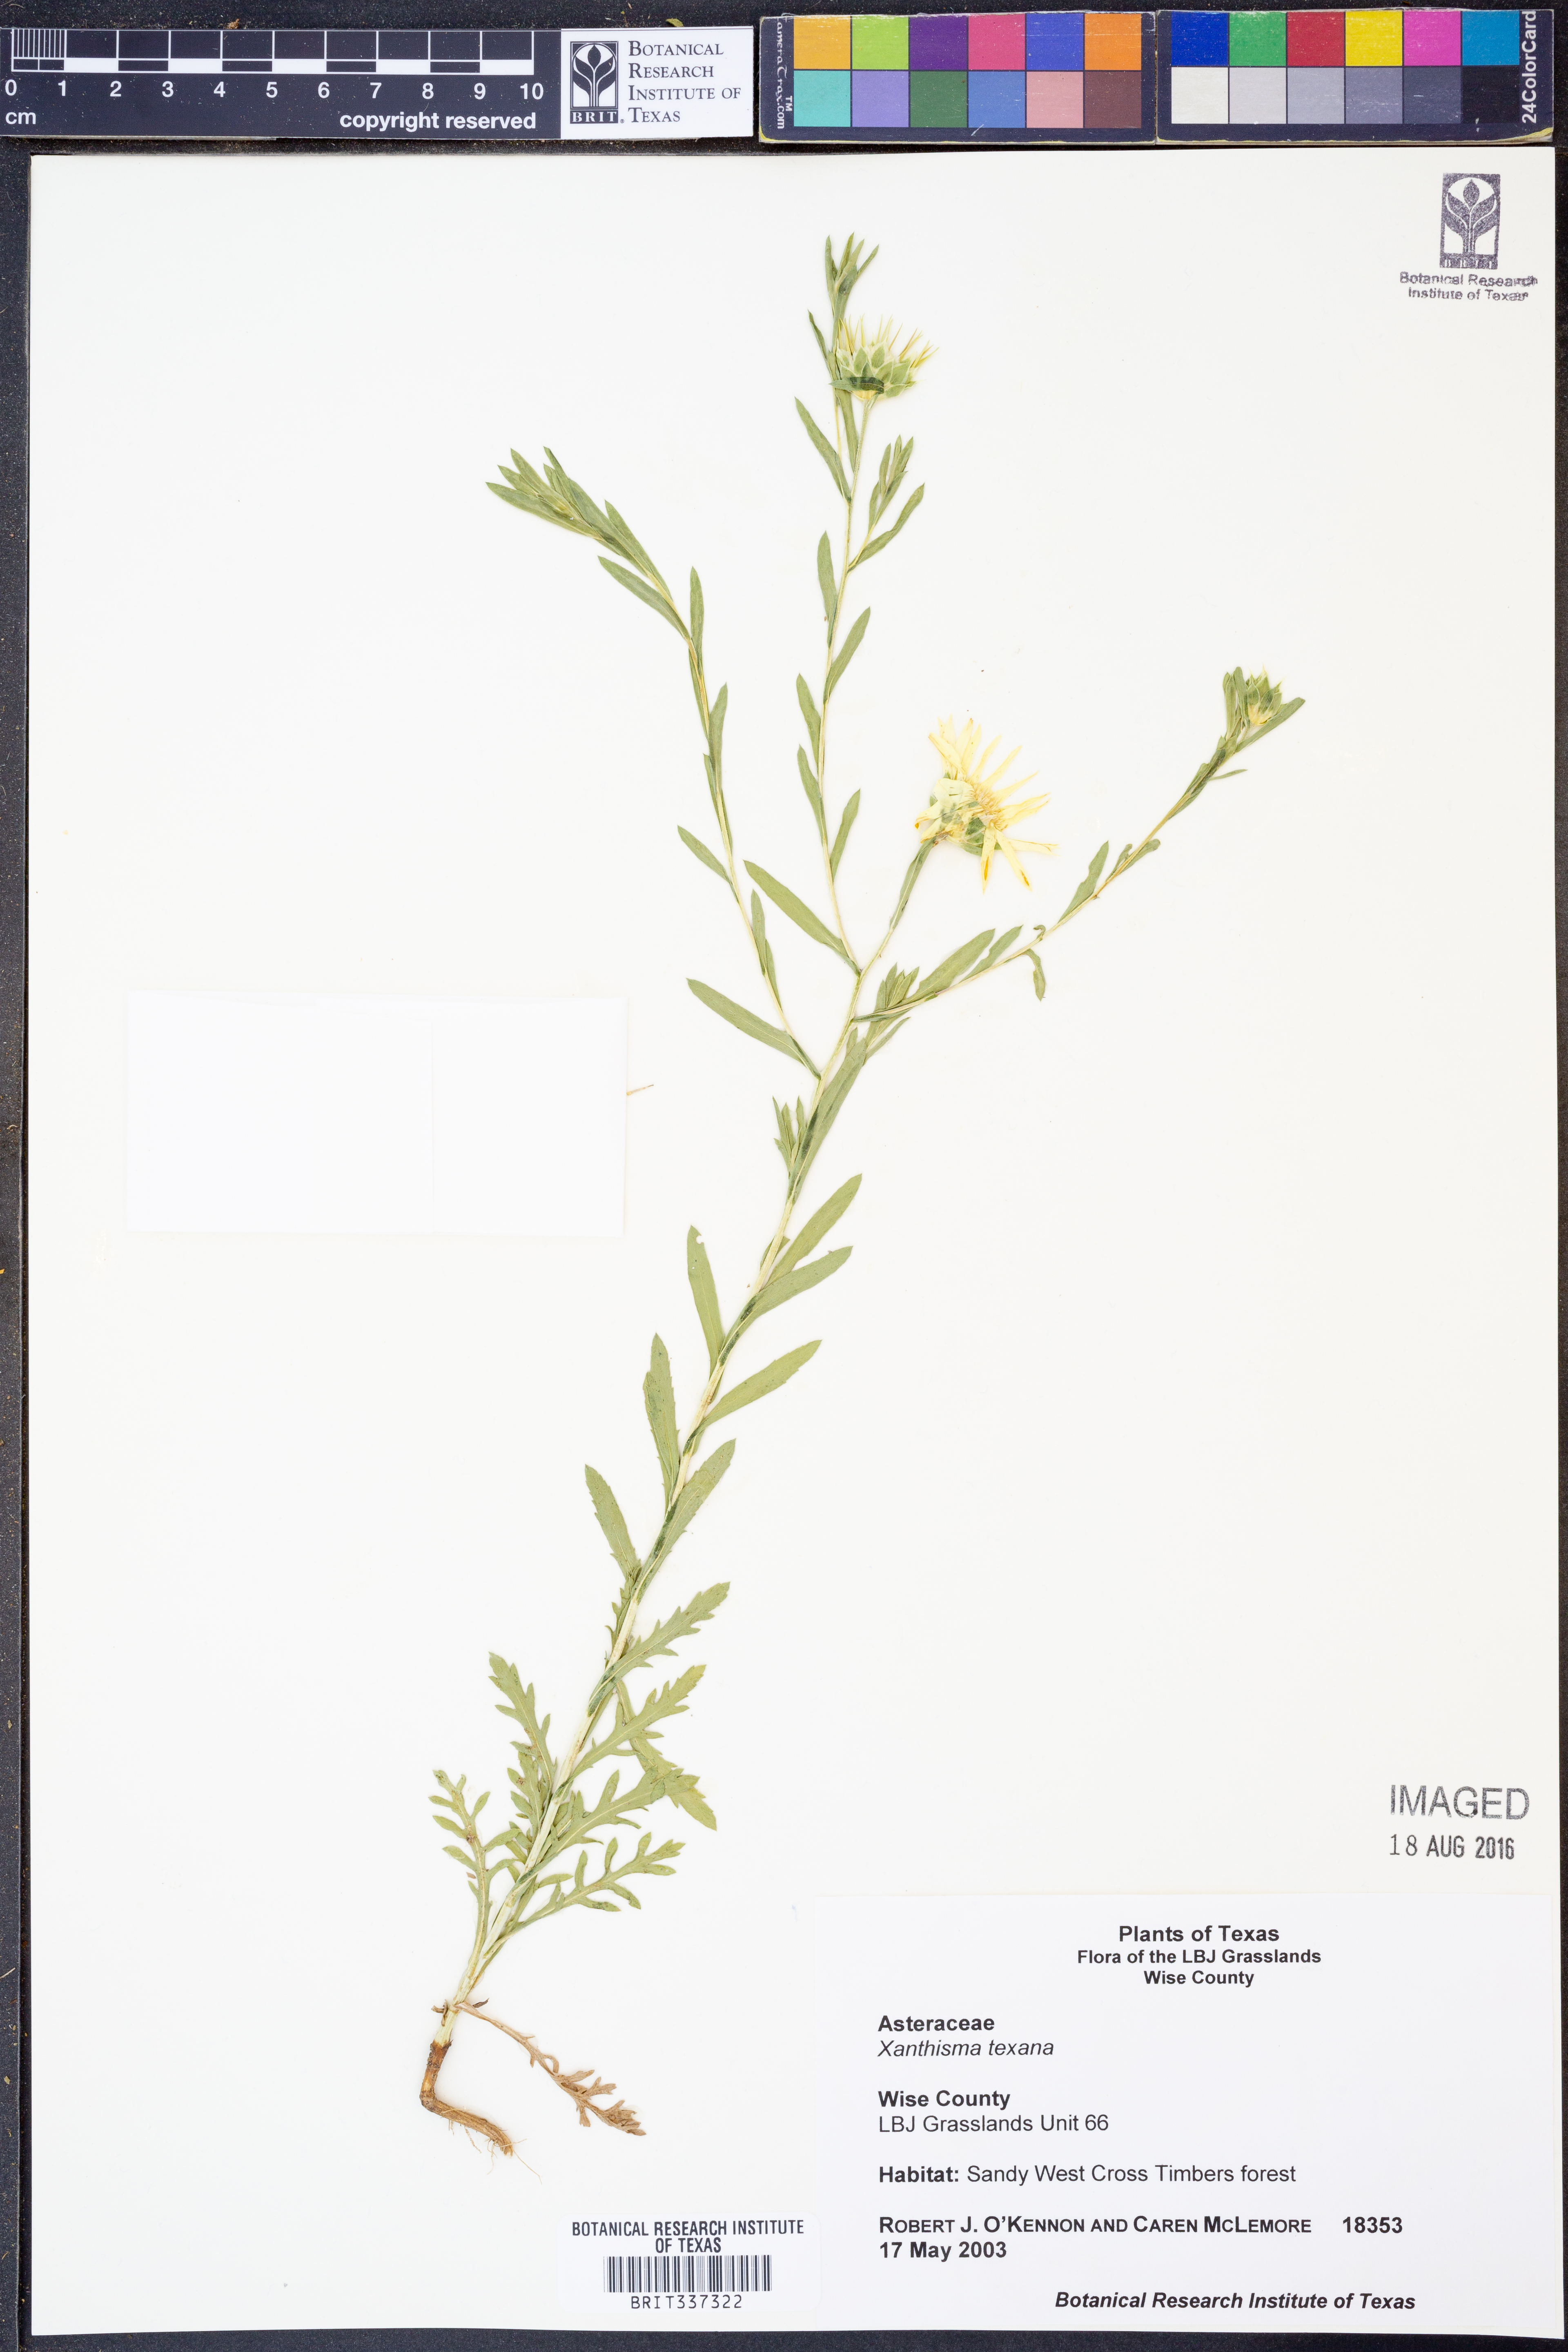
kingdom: Plantae
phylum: Tracheophyta
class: Magnoliopsida
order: Asterales
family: Asteraceae
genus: Xanthisma
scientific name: Xanthisma texanum
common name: Texas sleepy daisy
